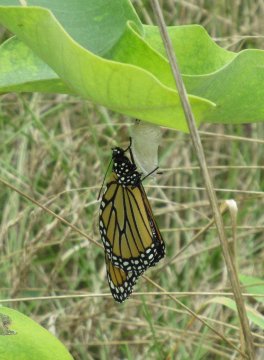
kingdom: Animalia
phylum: Arthropoda
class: Insecta
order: Lepidoptera
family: Nymphalidae
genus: Danaus
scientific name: Danaus plexippus
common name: Monarch
